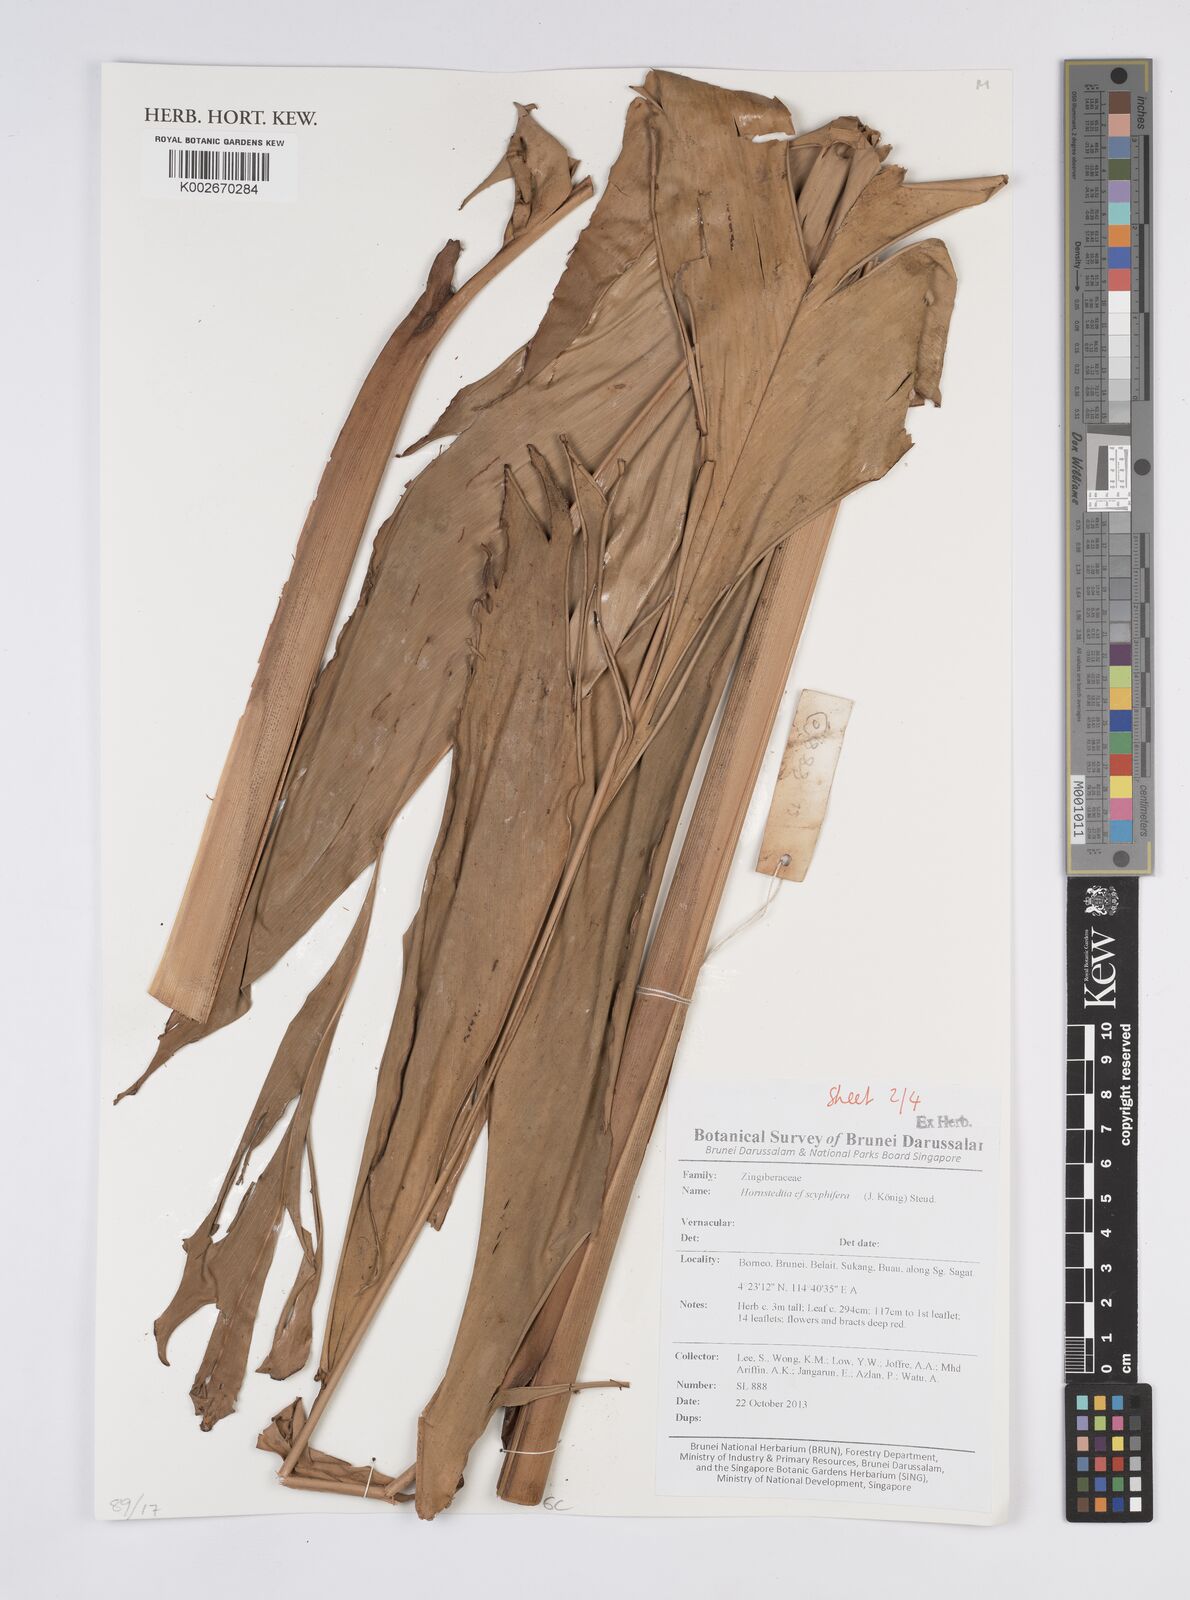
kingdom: Plantae
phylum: Tracheophyta
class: Liliopsida
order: Zingiberales
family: Zingiberaceae
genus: Hornstedtia
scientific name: Hornstedtia scyphifera
